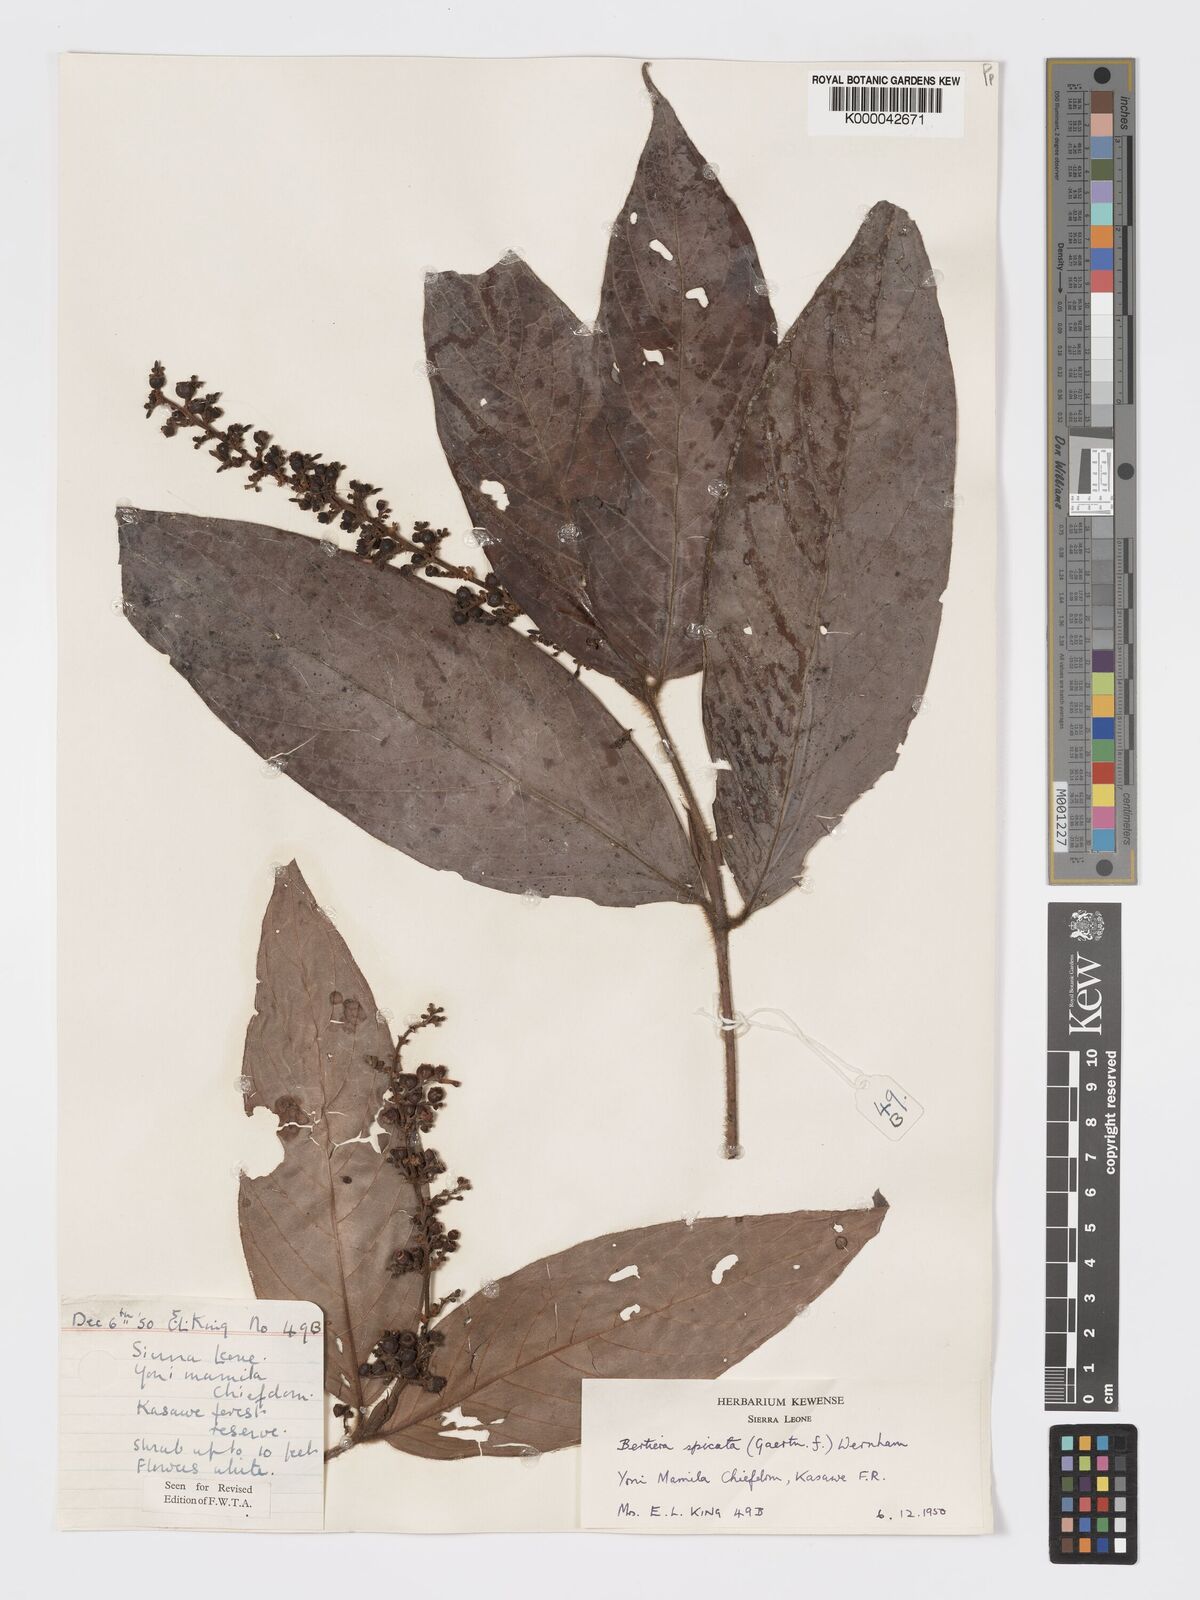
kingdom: Plantae
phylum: Tracheophyta
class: Magnoliopsida
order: Gentianales
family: Rubiaceae
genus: Bertiera
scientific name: Bertiera
